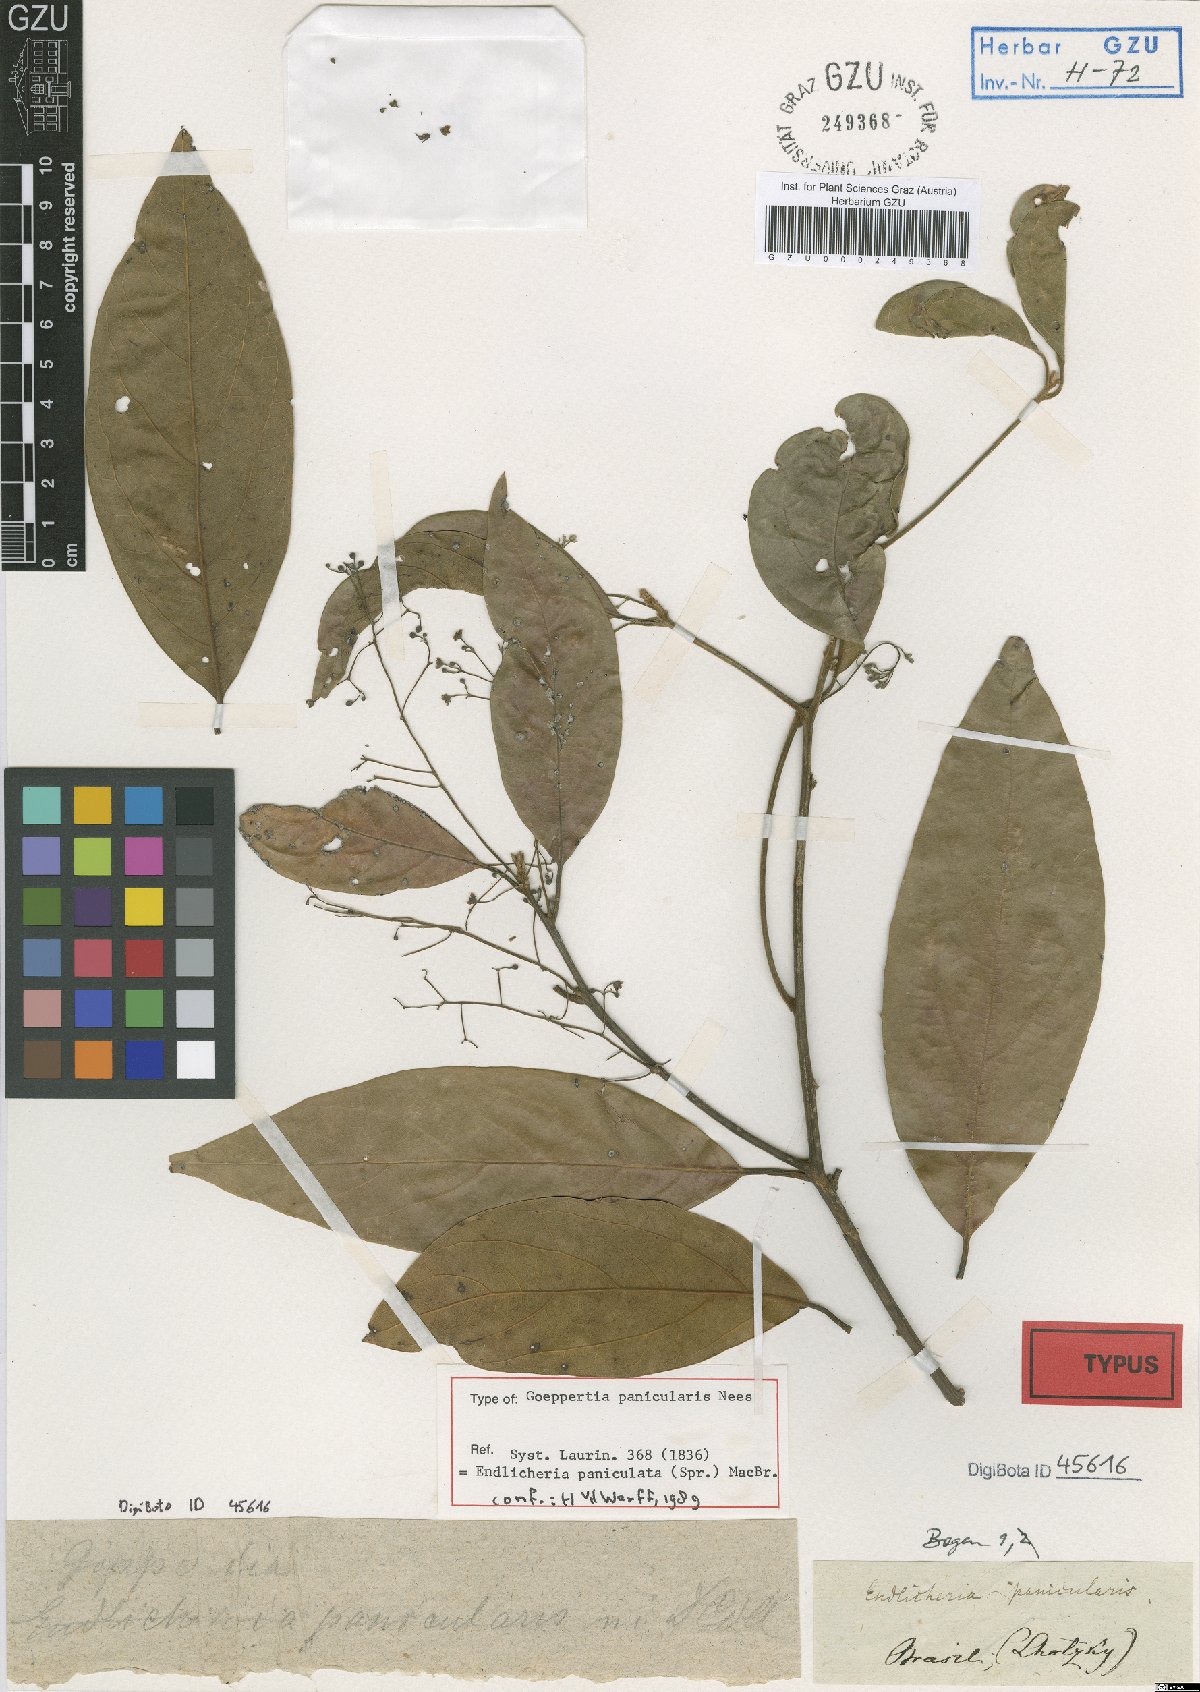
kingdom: Plantae
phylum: Tracheophyta
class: Magnoliopsida
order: Laurales
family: Lauraceae
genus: Endlicheria
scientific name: Endlicheria paniculata
